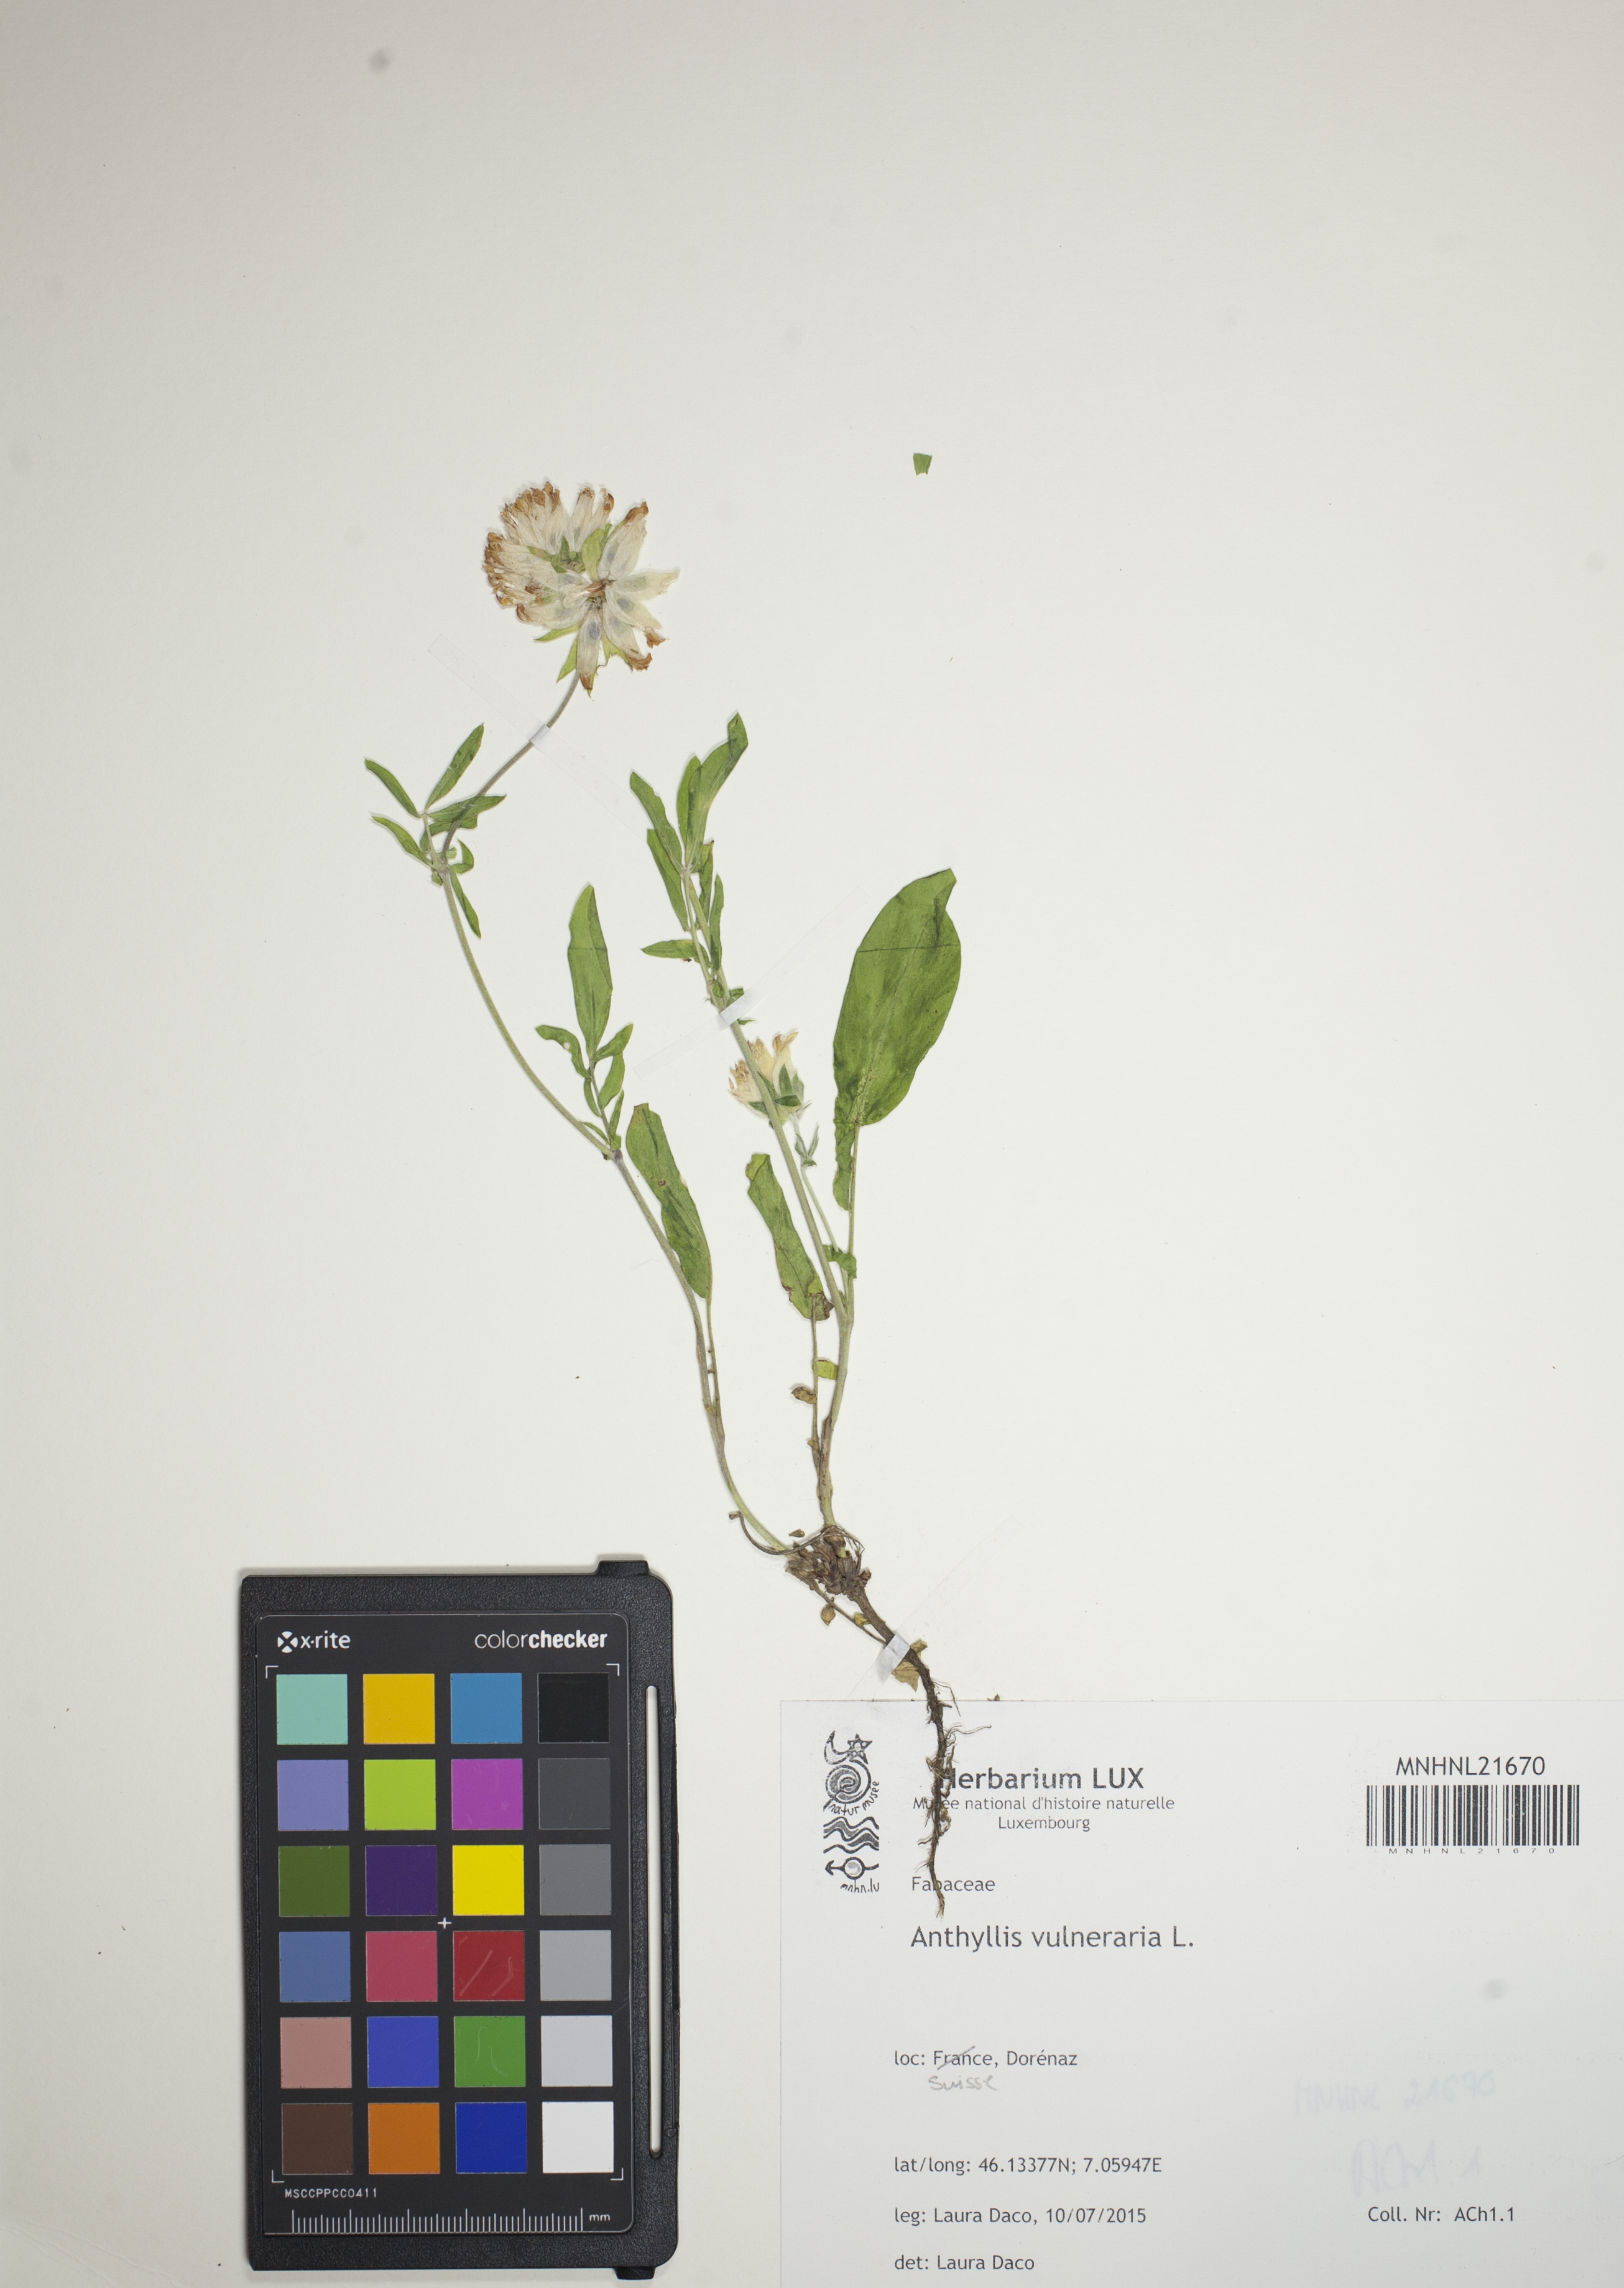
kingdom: Plantae
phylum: Tracheophyta
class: Magnoliopsida
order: Fabales
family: Fabaceae
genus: Anthyllis
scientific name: Anthyllis vulneraria
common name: Kidney vetch
